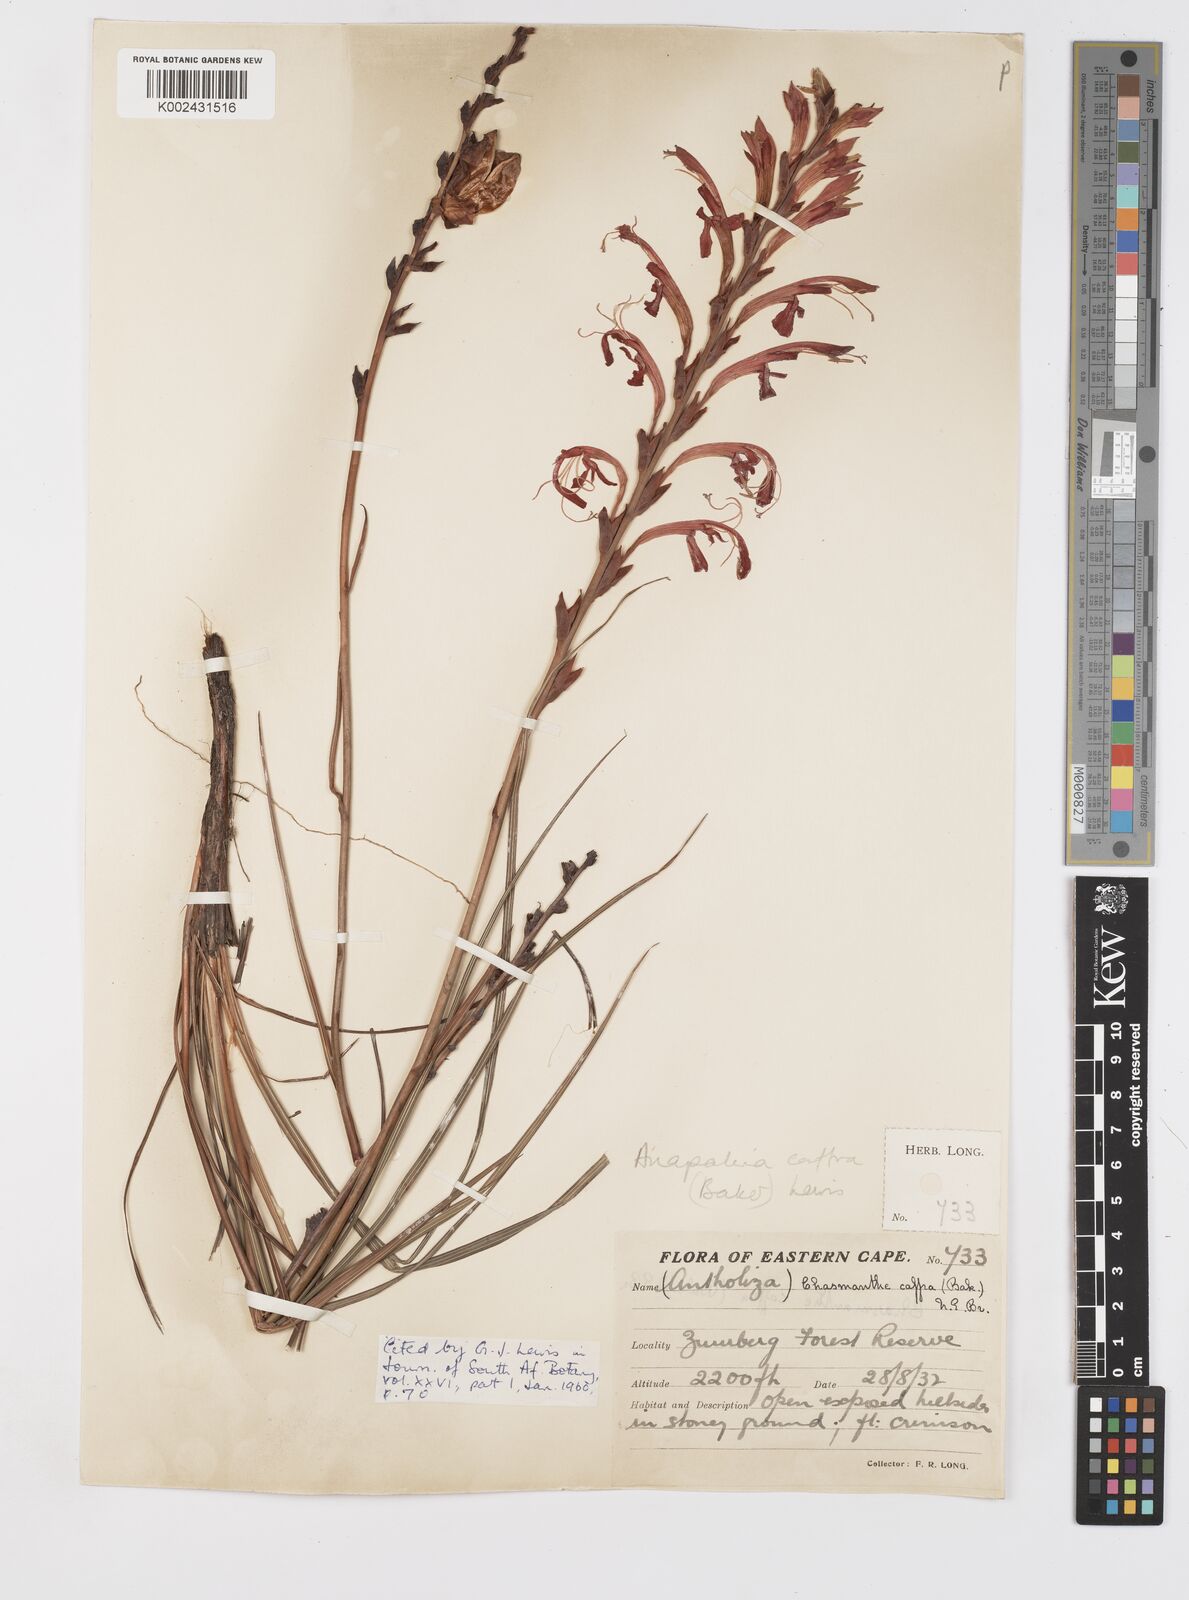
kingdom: Plantae
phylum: Tracheophyta
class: Liliopsida
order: Asparagales
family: Iridaceae
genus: Tritoniopsis
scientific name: Tritoniopsis caffra
